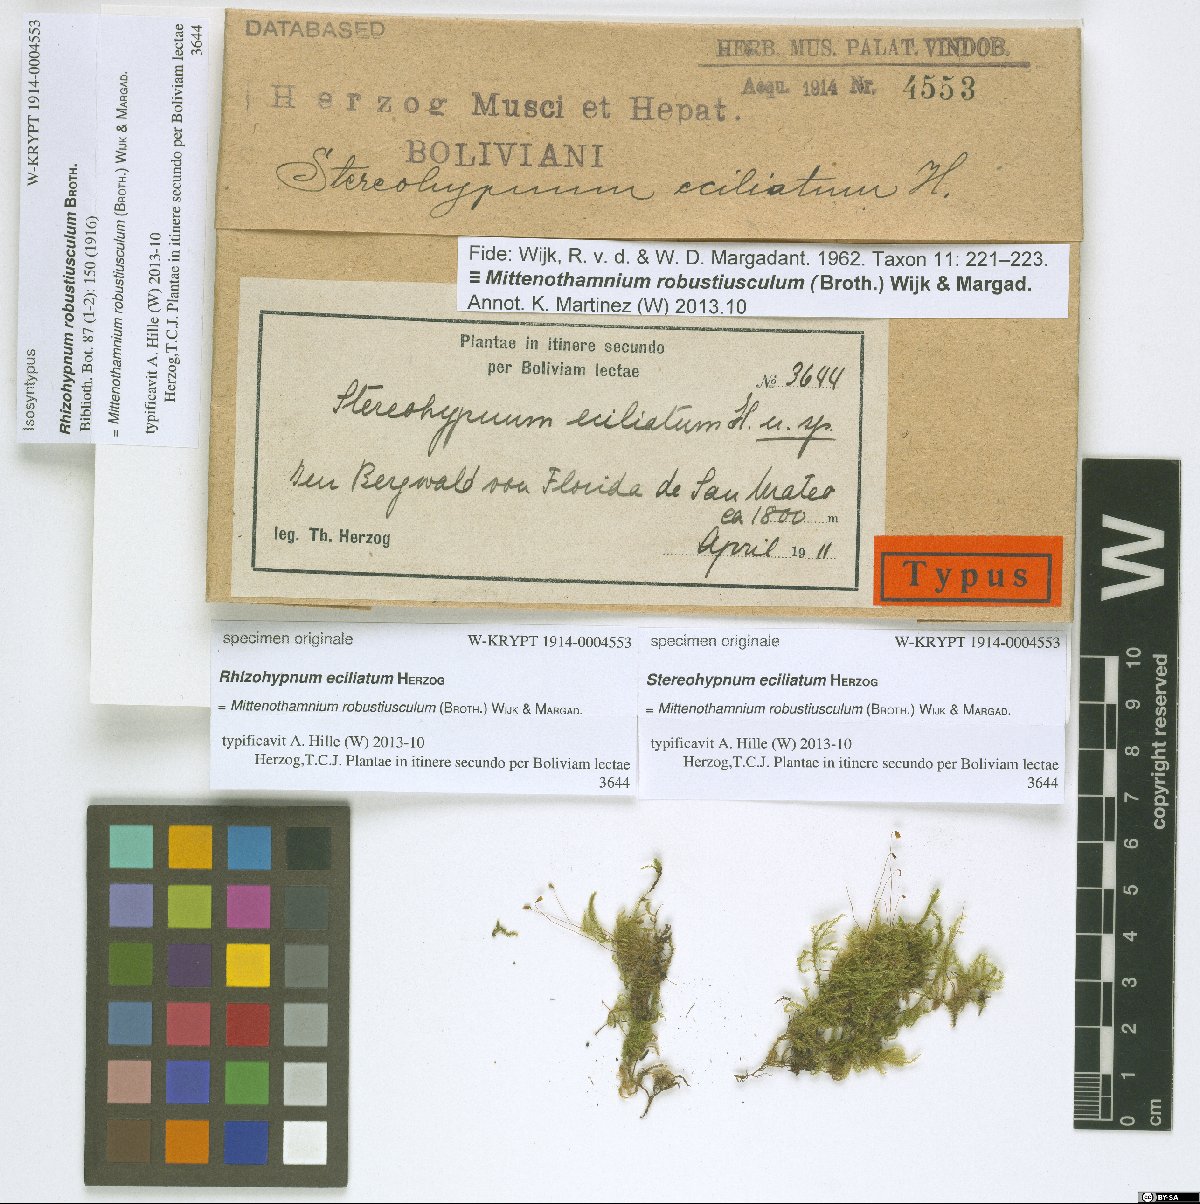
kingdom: Plantae
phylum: Bryophyta
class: Bryopsida
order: Hypnales
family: Hypnaceae
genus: Mittenothamnium
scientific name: Mittenothamnium robustiusculum
